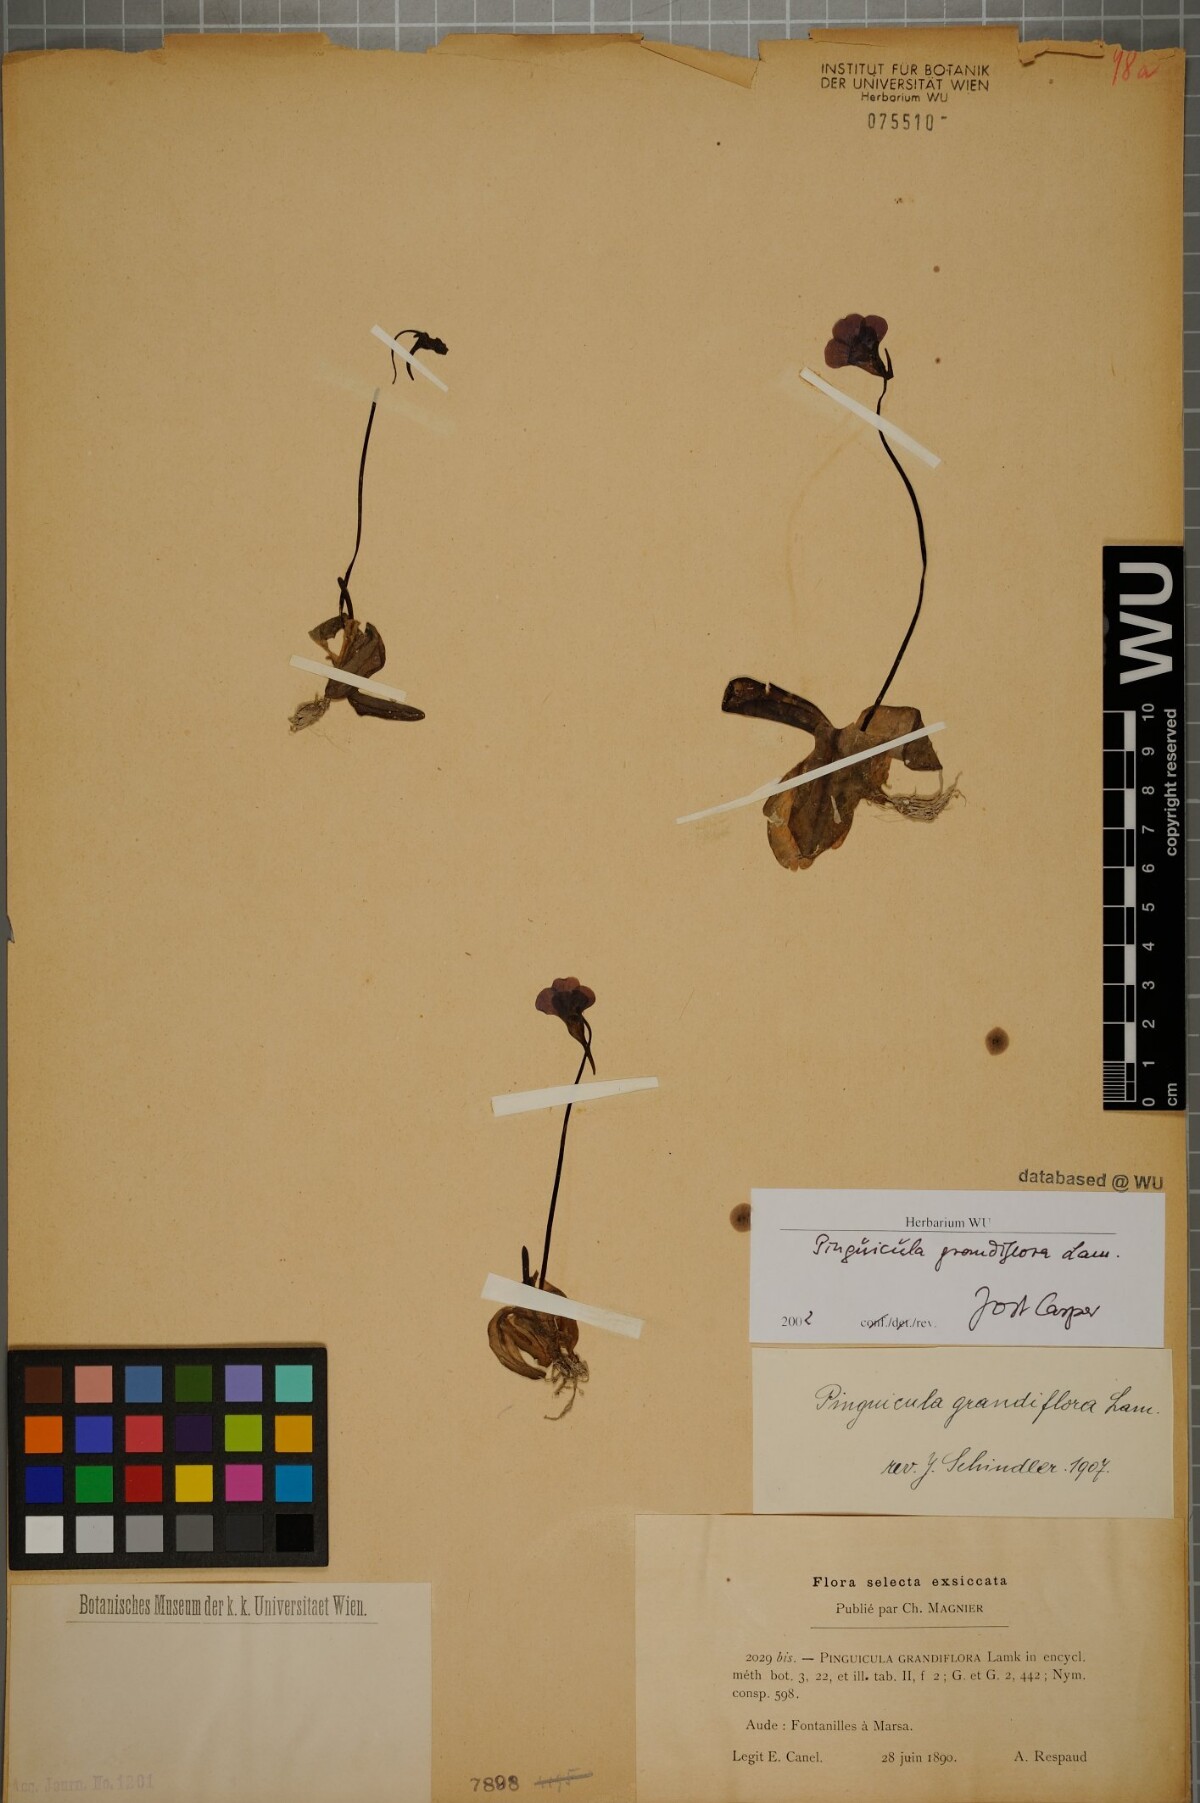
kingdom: Plantae
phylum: Tracheophyta
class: Magnoliopsida
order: Lamiales
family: Lentibulariaceae
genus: Pinguicula
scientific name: Pinguicula grandiflora
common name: Large-flowered butterwort
